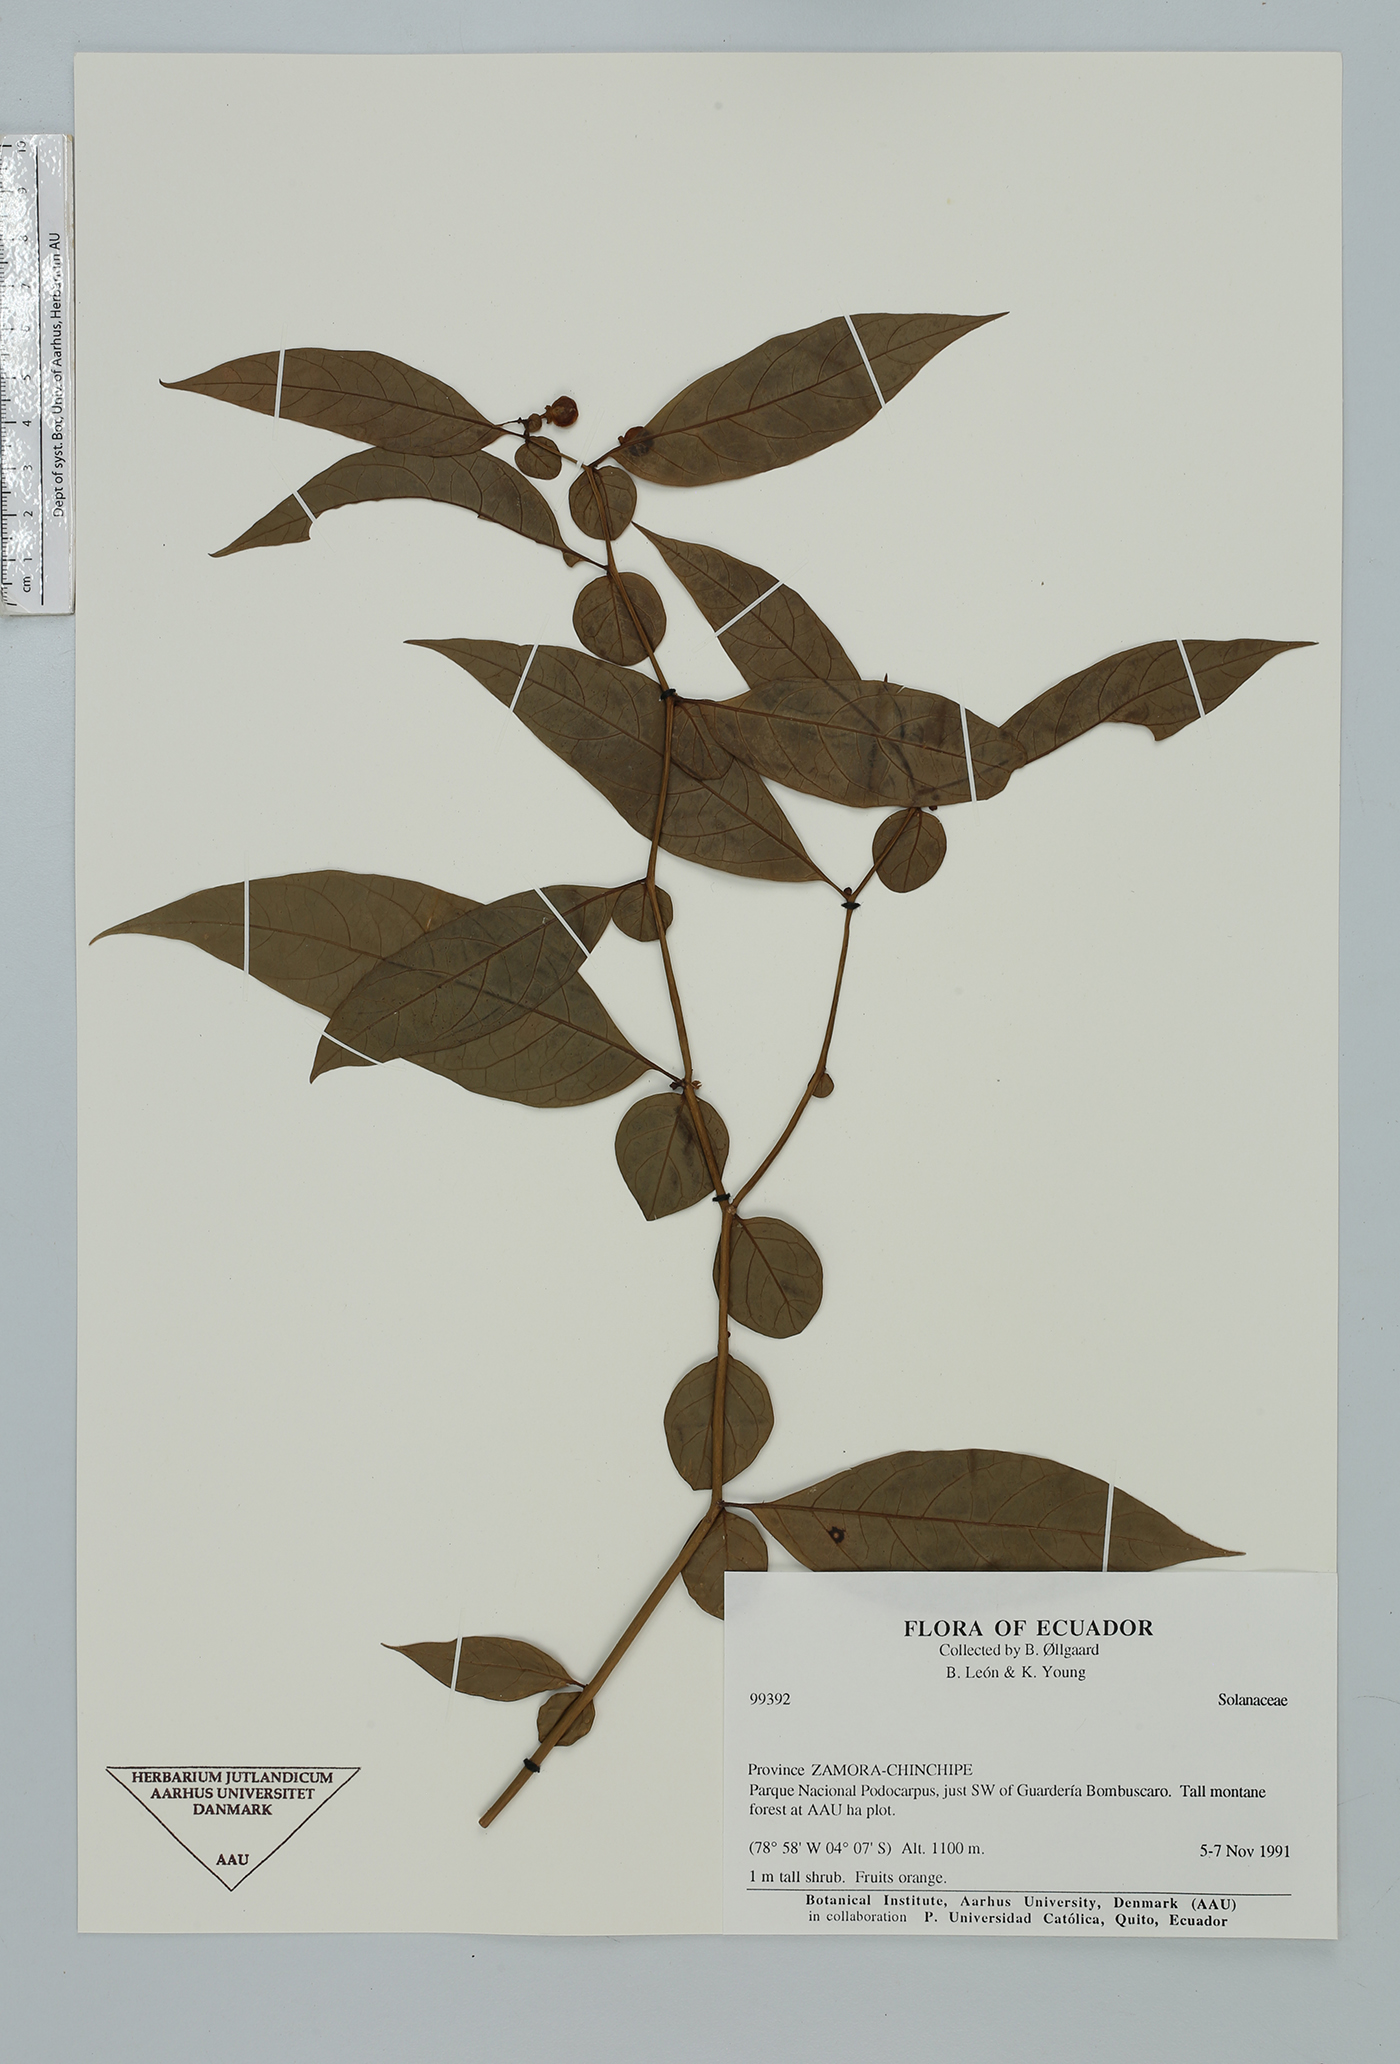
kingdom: Plantae
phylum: Tracheophyta
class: Magnoliopsida
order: Solanales
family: Solanaceae
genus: Capsicum
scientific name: Capsicum
